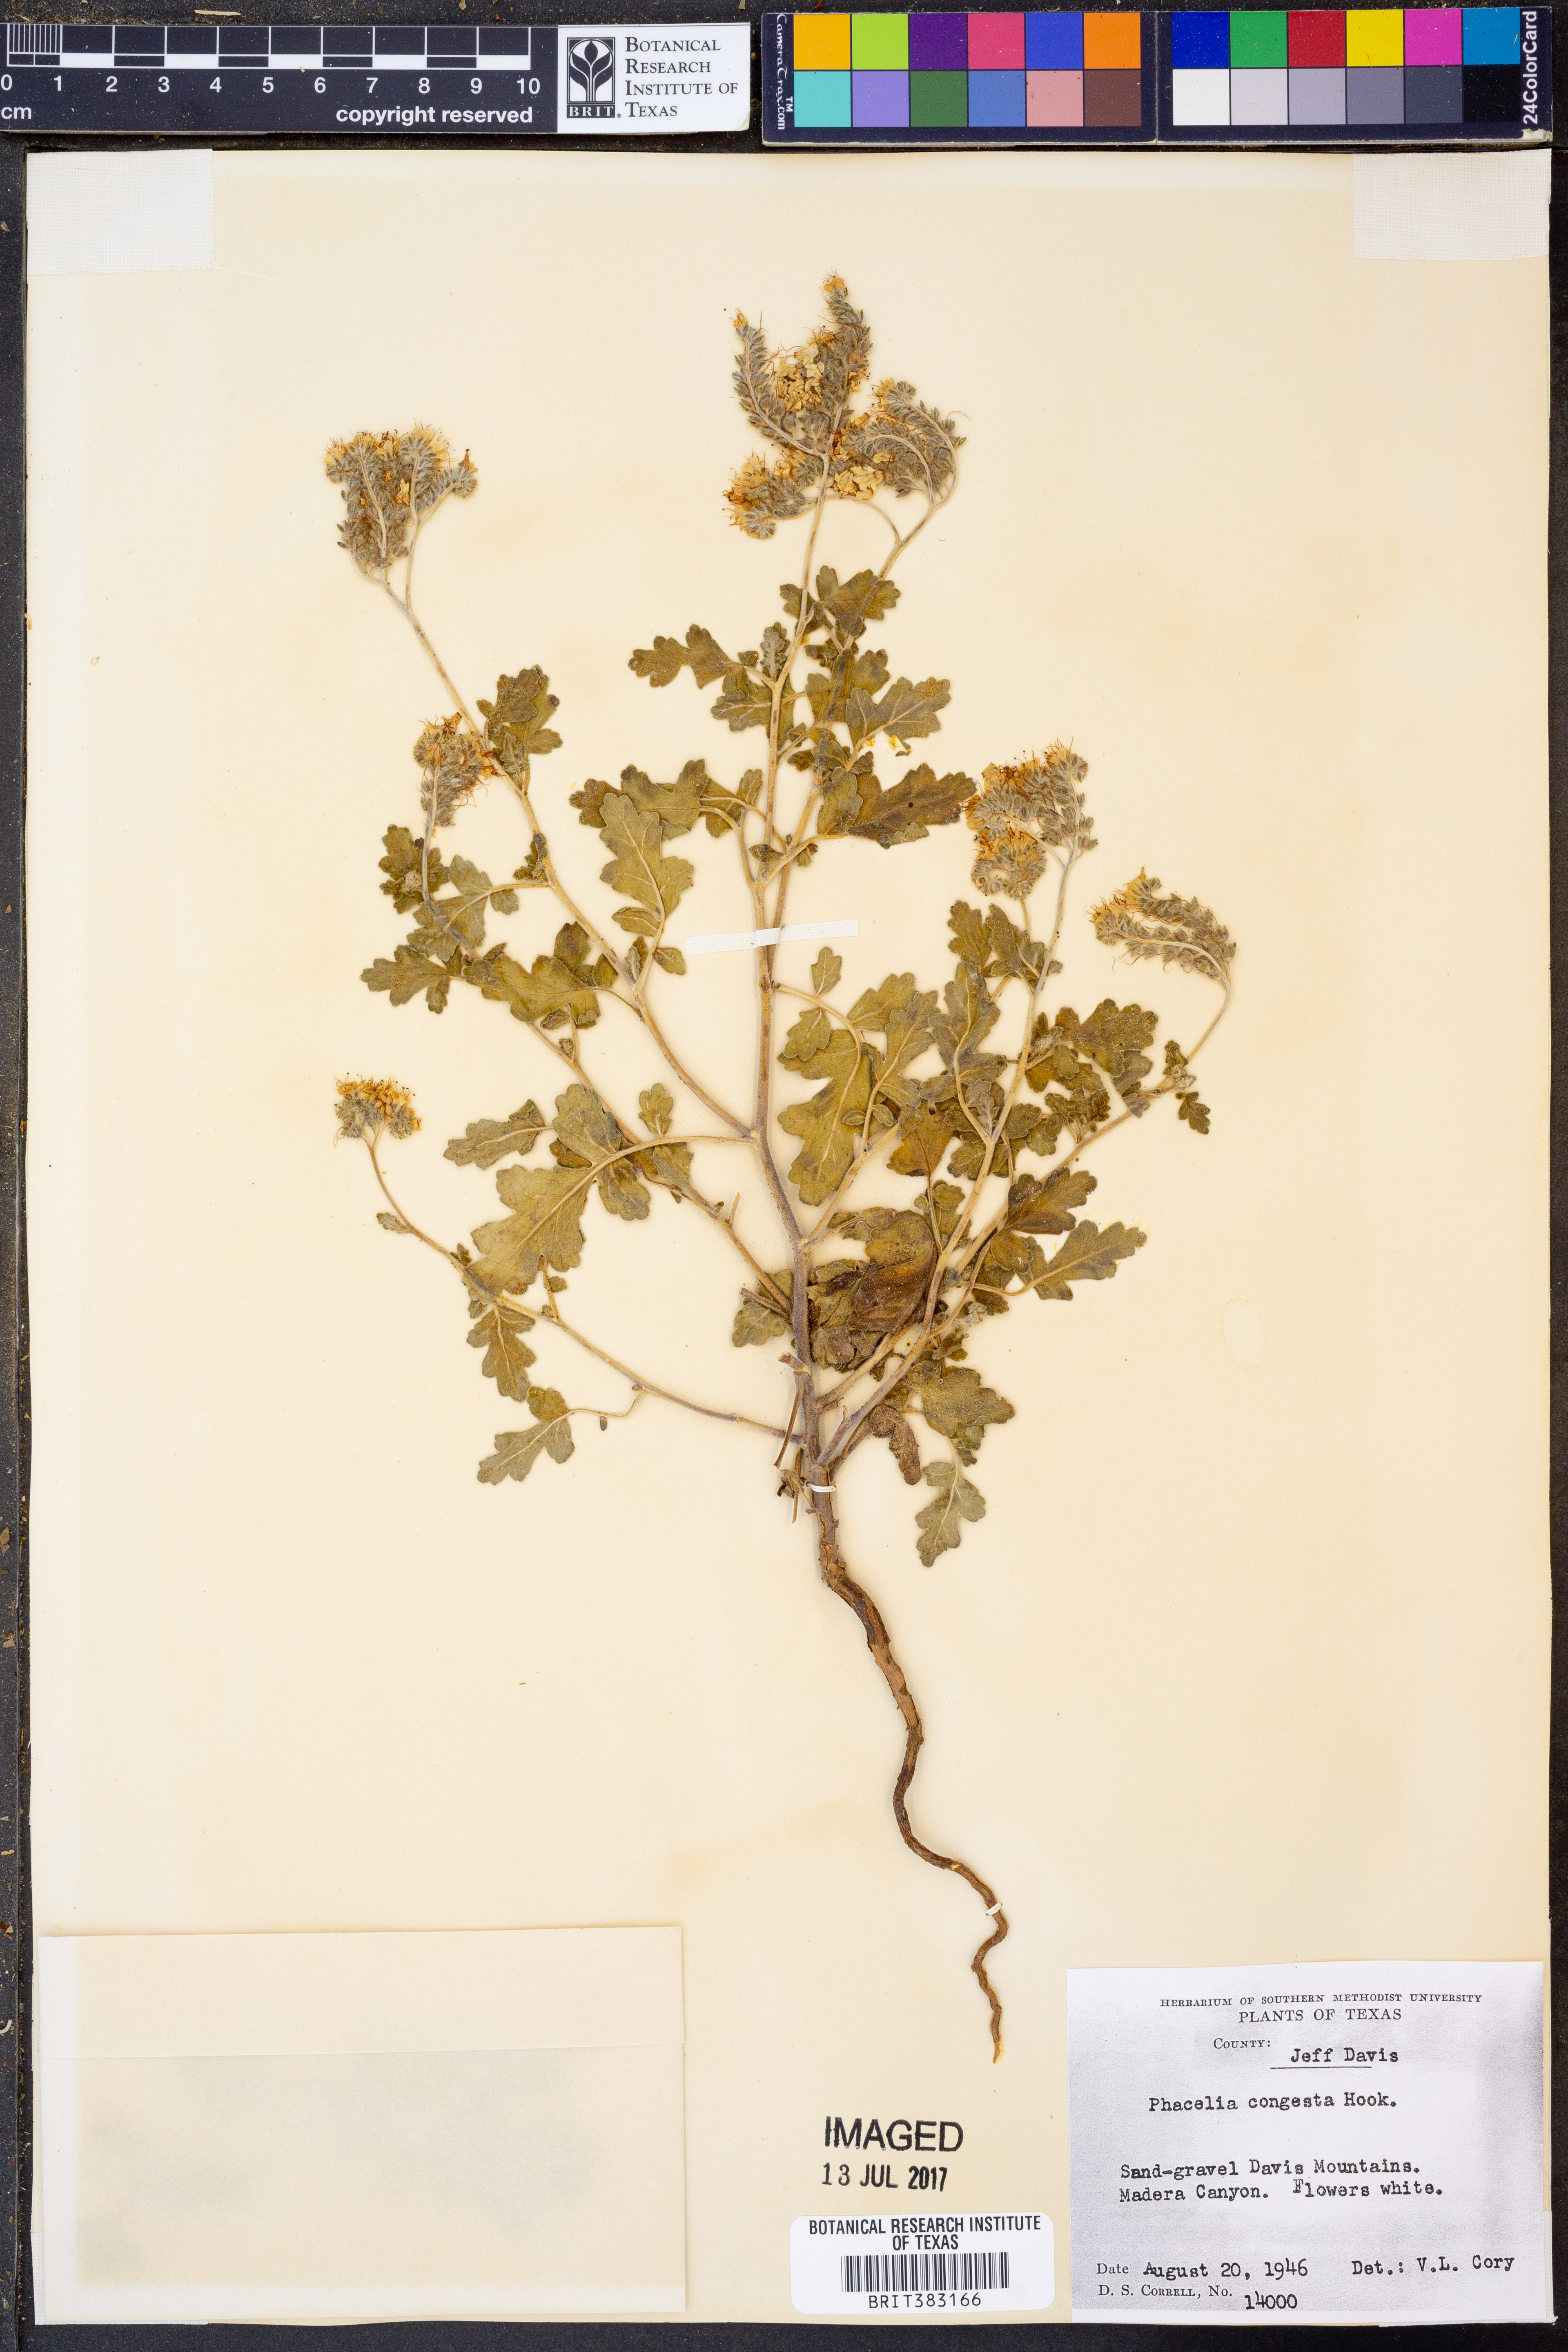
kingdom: Plantae
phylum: Tracheophyta
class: Magnoliopsida
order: Boraginales
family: Hydrophyllaceae
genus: Phacelia
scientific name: Phacelia congesta
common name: Blue curls
